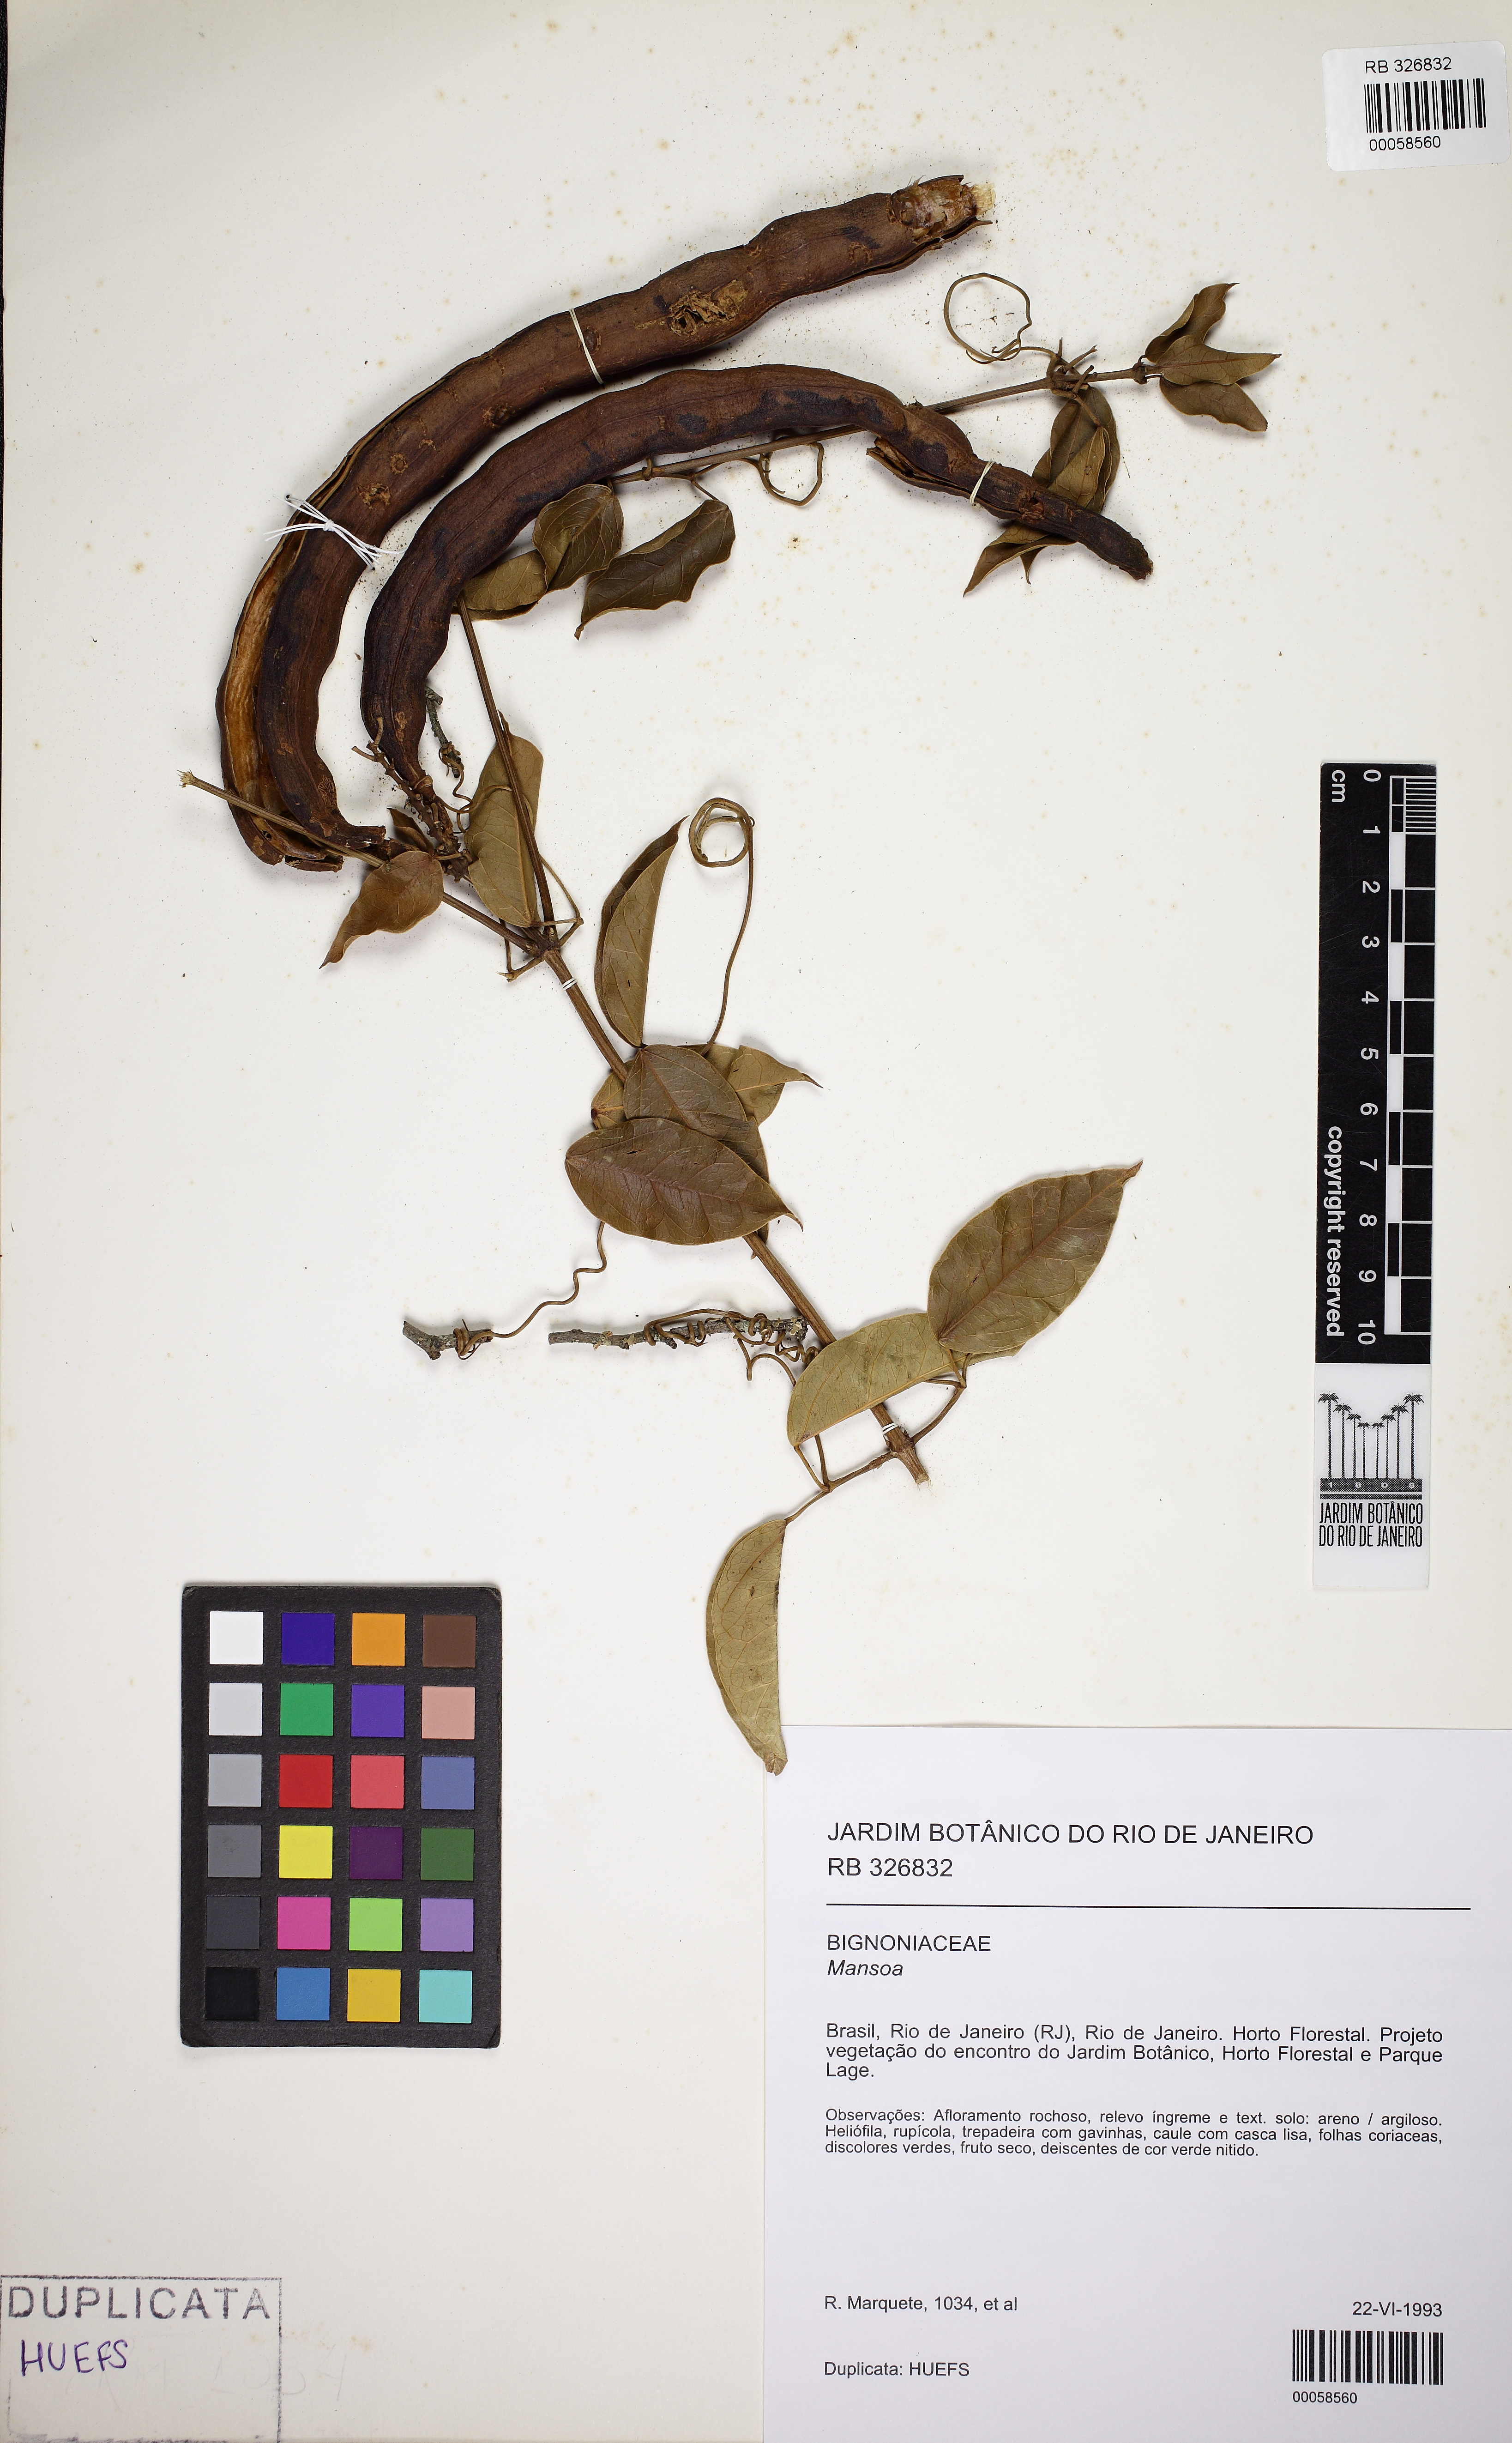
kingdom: Plantae
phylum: Tracheophyta
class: Magnoliopsida
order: Lamiales
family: Bignoniaceae
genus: Mansoa
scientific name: Mansoa
